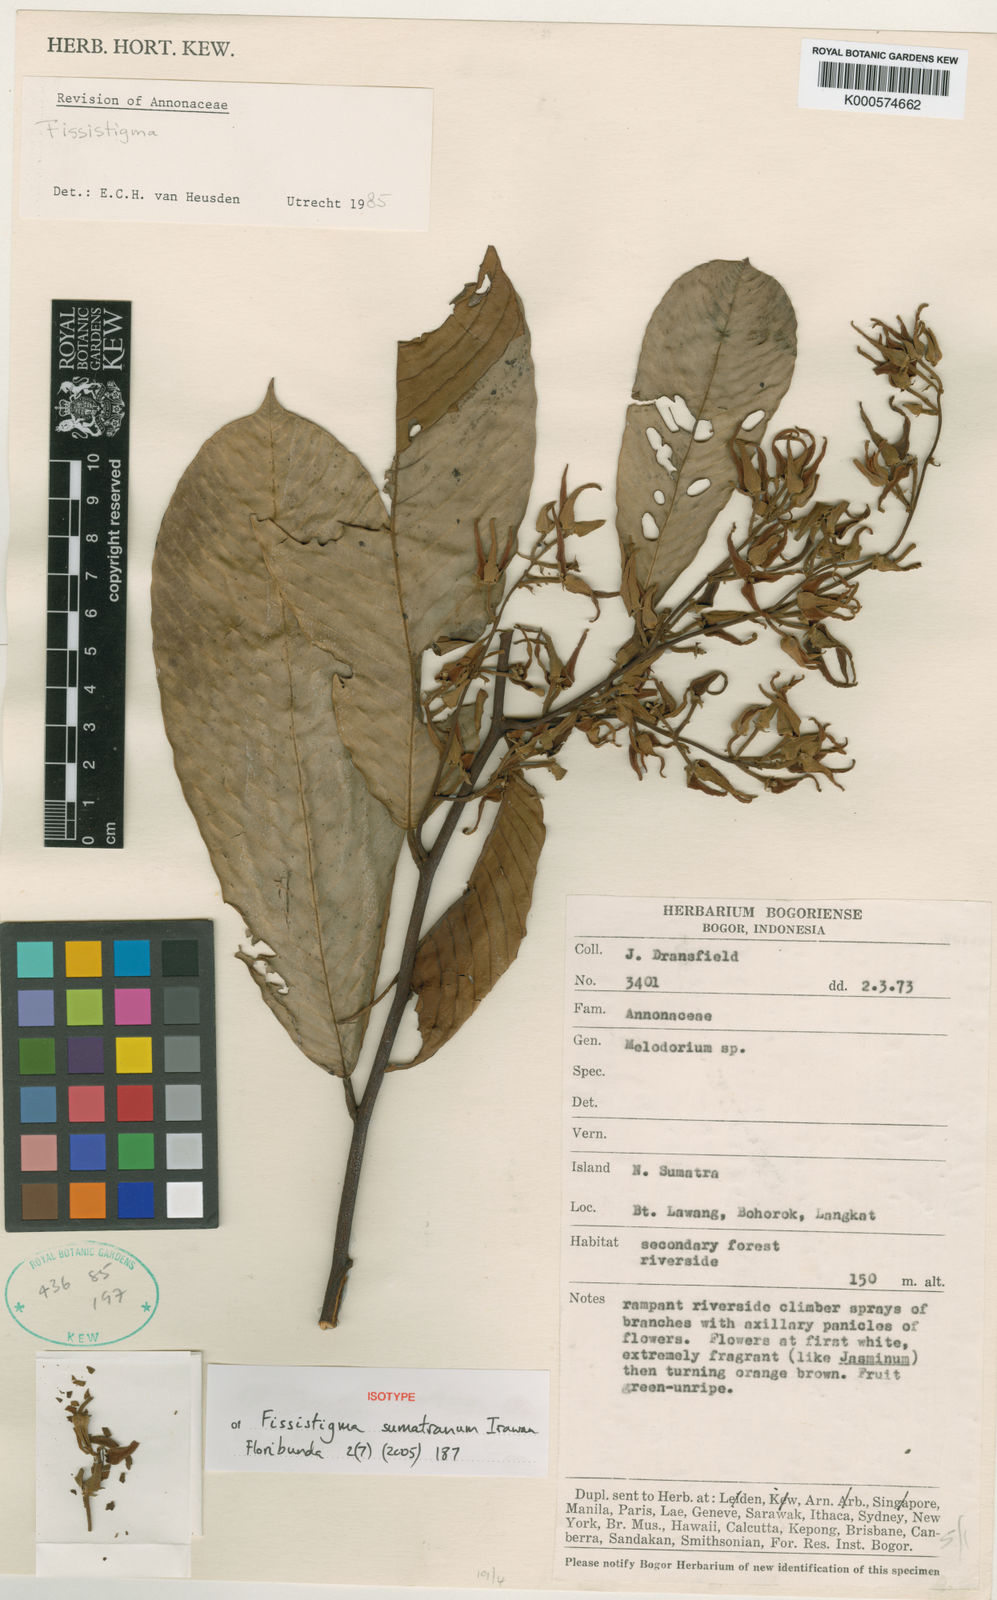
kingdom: Plantae
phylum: Tracheophyta
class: Magnoliopsida
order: Magnoliales
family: Annonaceae
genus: Fissistigma
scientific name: Fissistigma sumatrana
